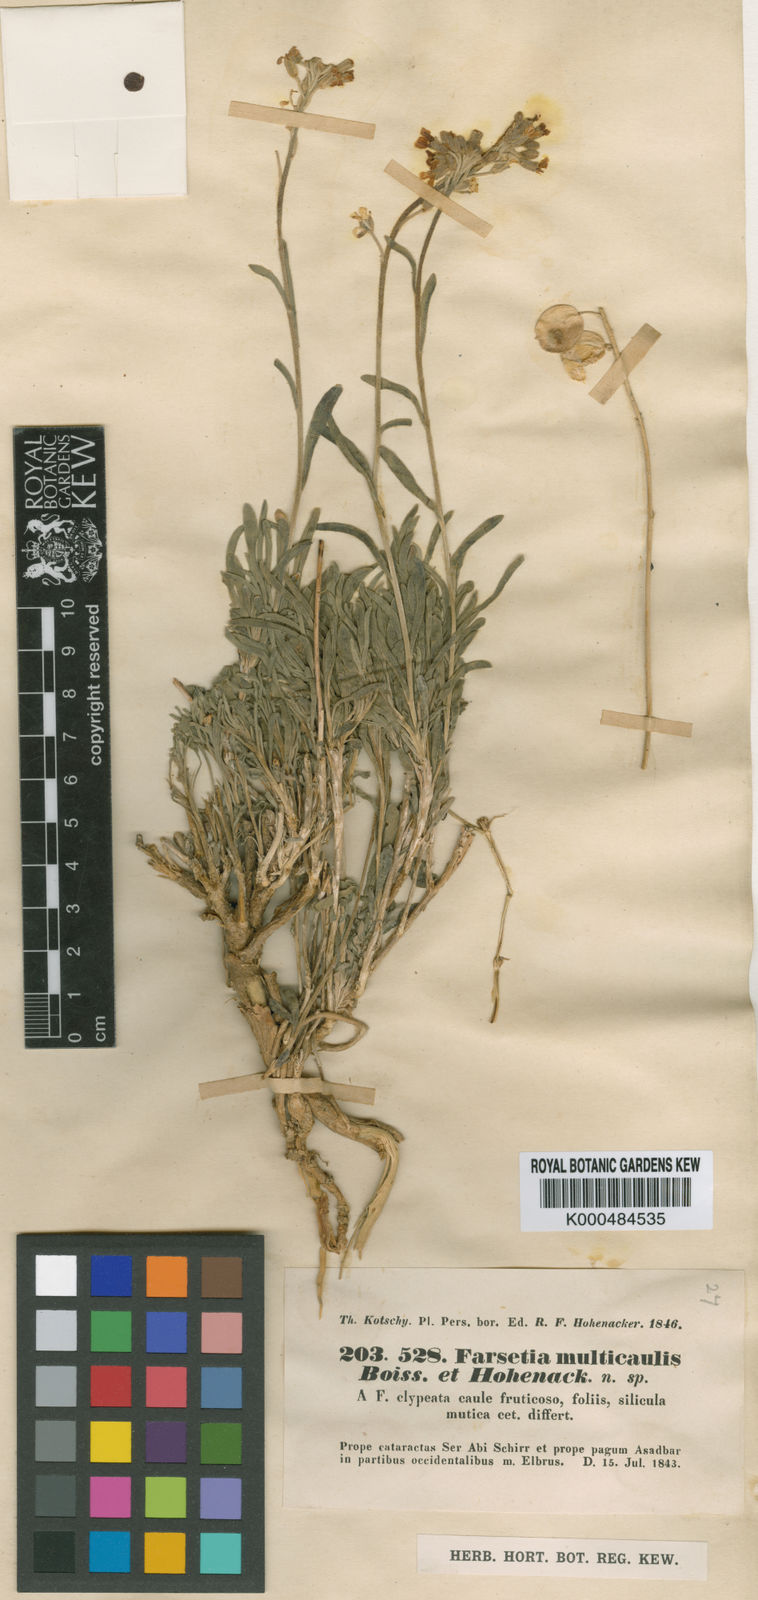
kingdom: Plantae
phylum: Tracheophyta
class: Magnoliopsida
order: Brassicales
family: Brassicaceae
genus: Irania
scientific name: Irania multicaulis
